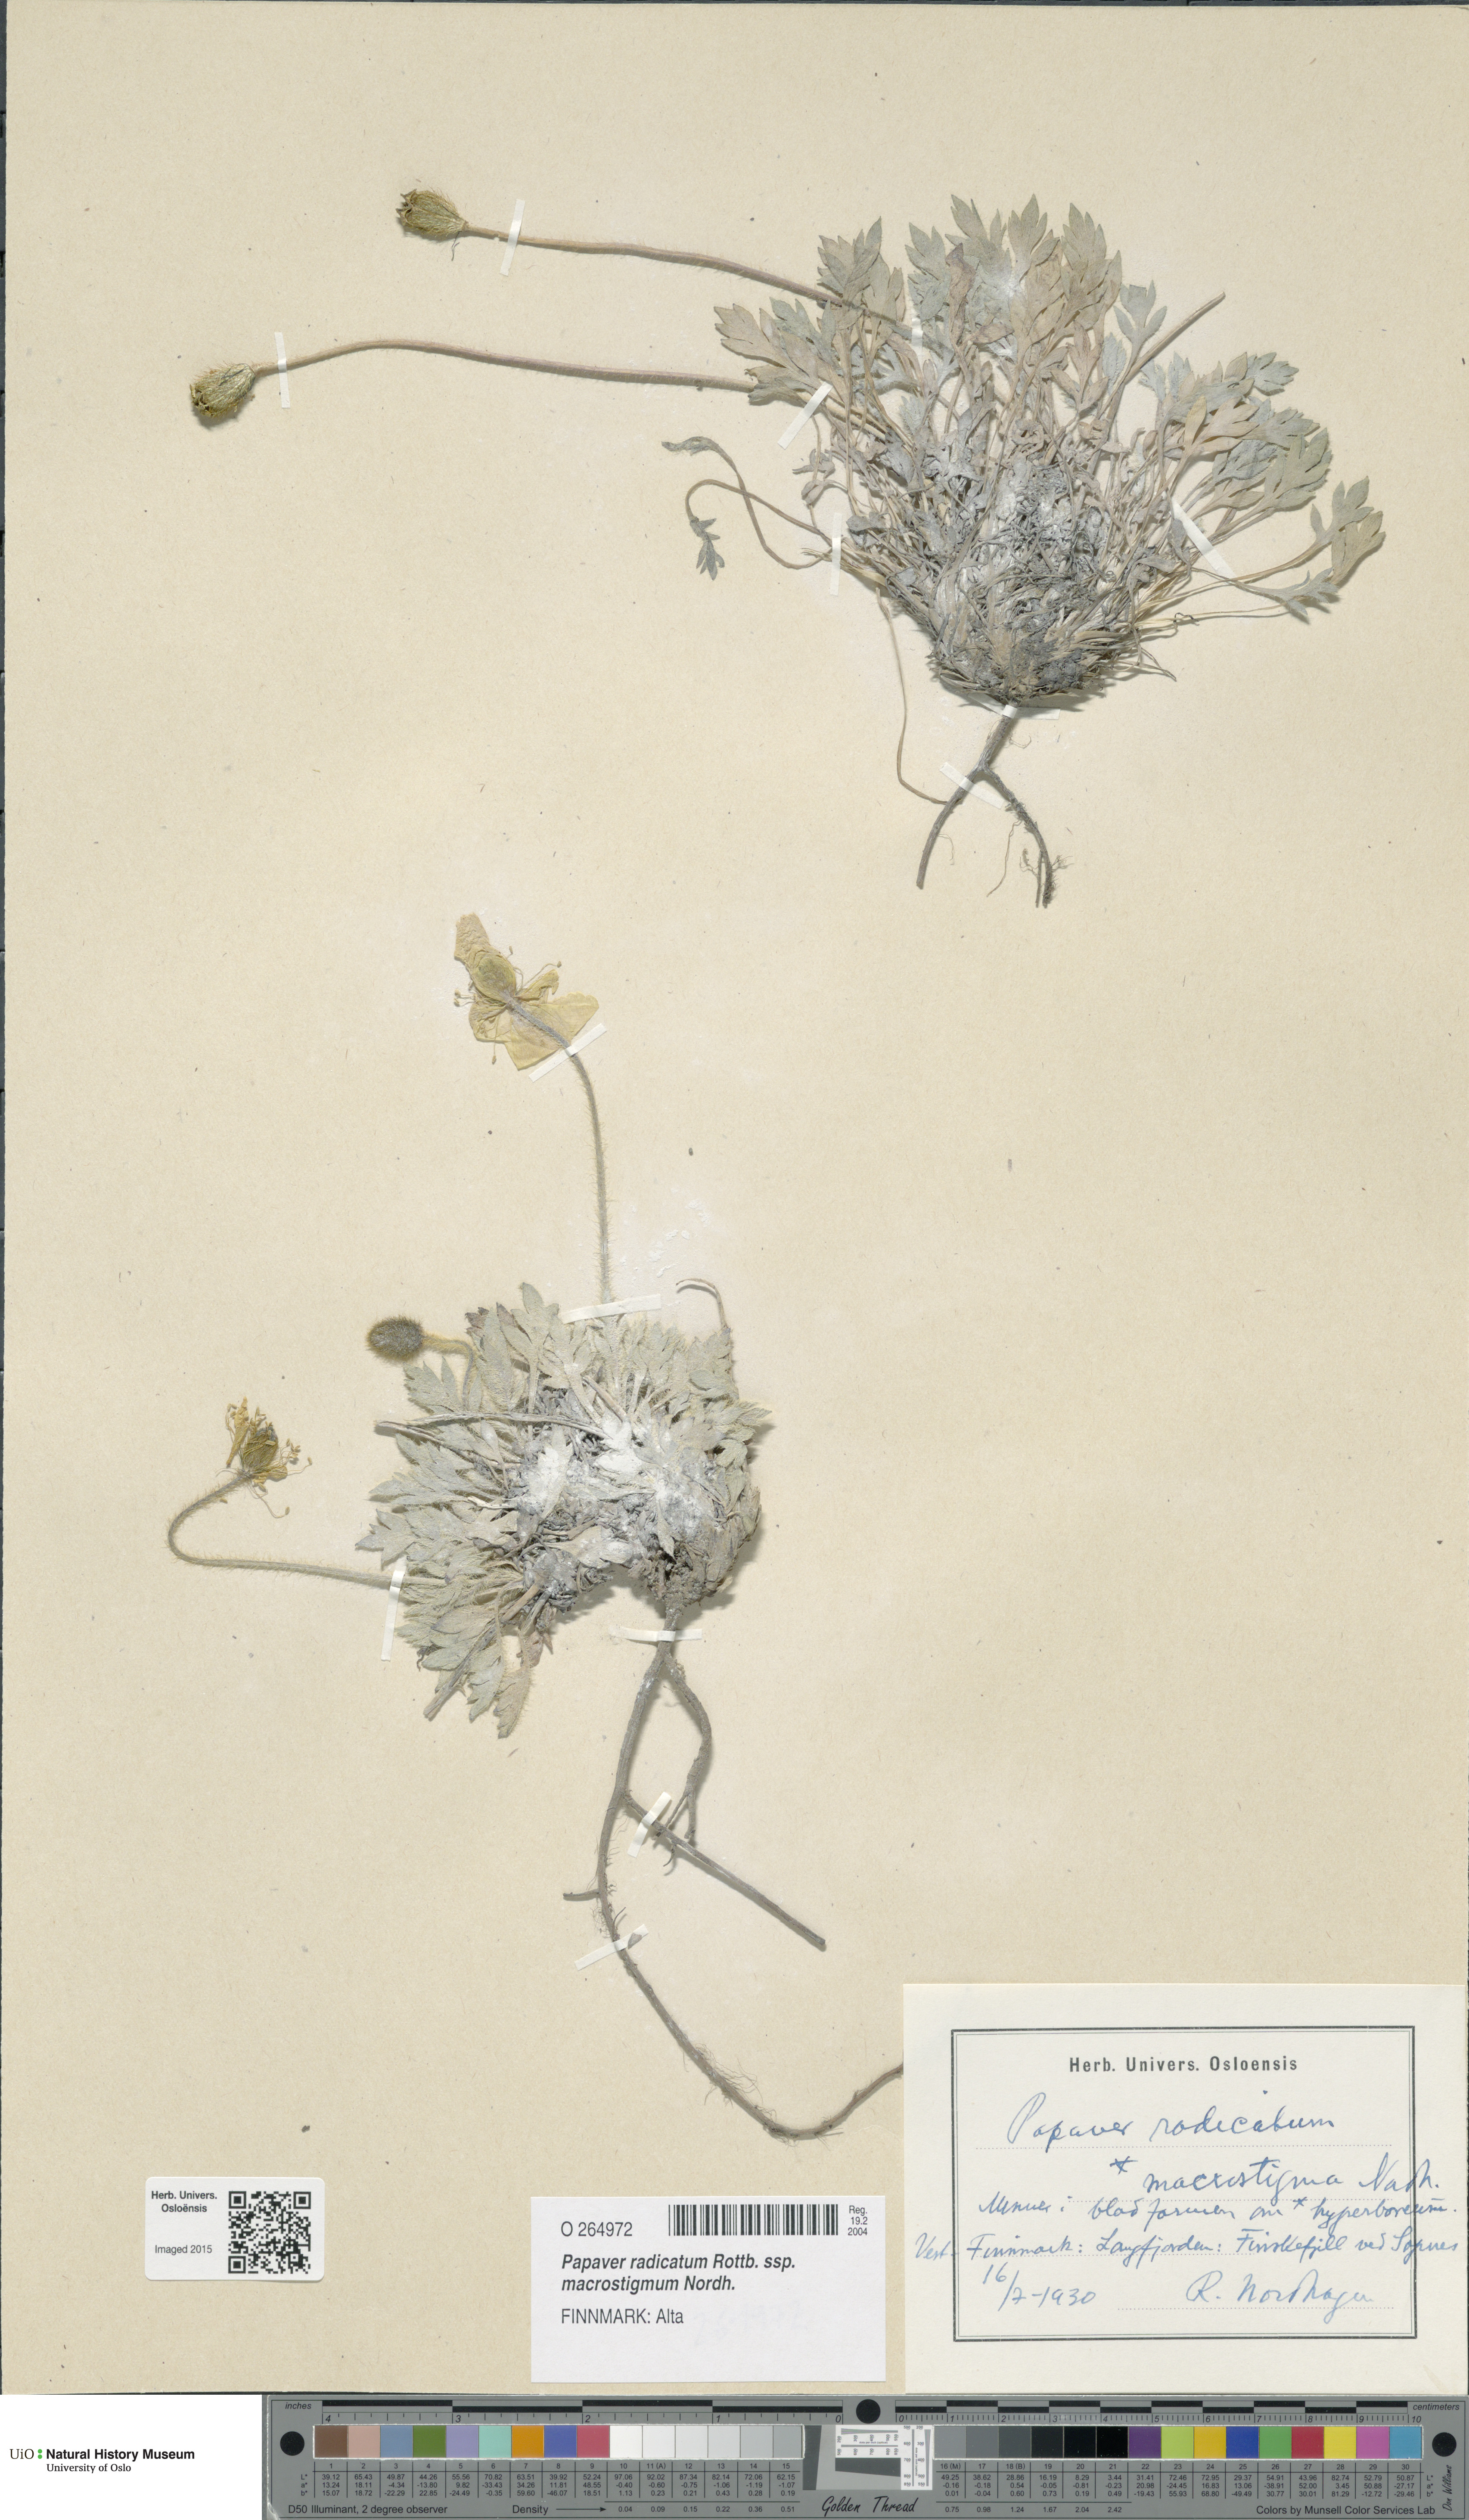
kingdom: Plantae
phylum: Tracheophyta
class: Magnoliopsida
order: Ranunculales
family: Papaveraceae
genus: Papaver
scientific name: Papaver radicatum
